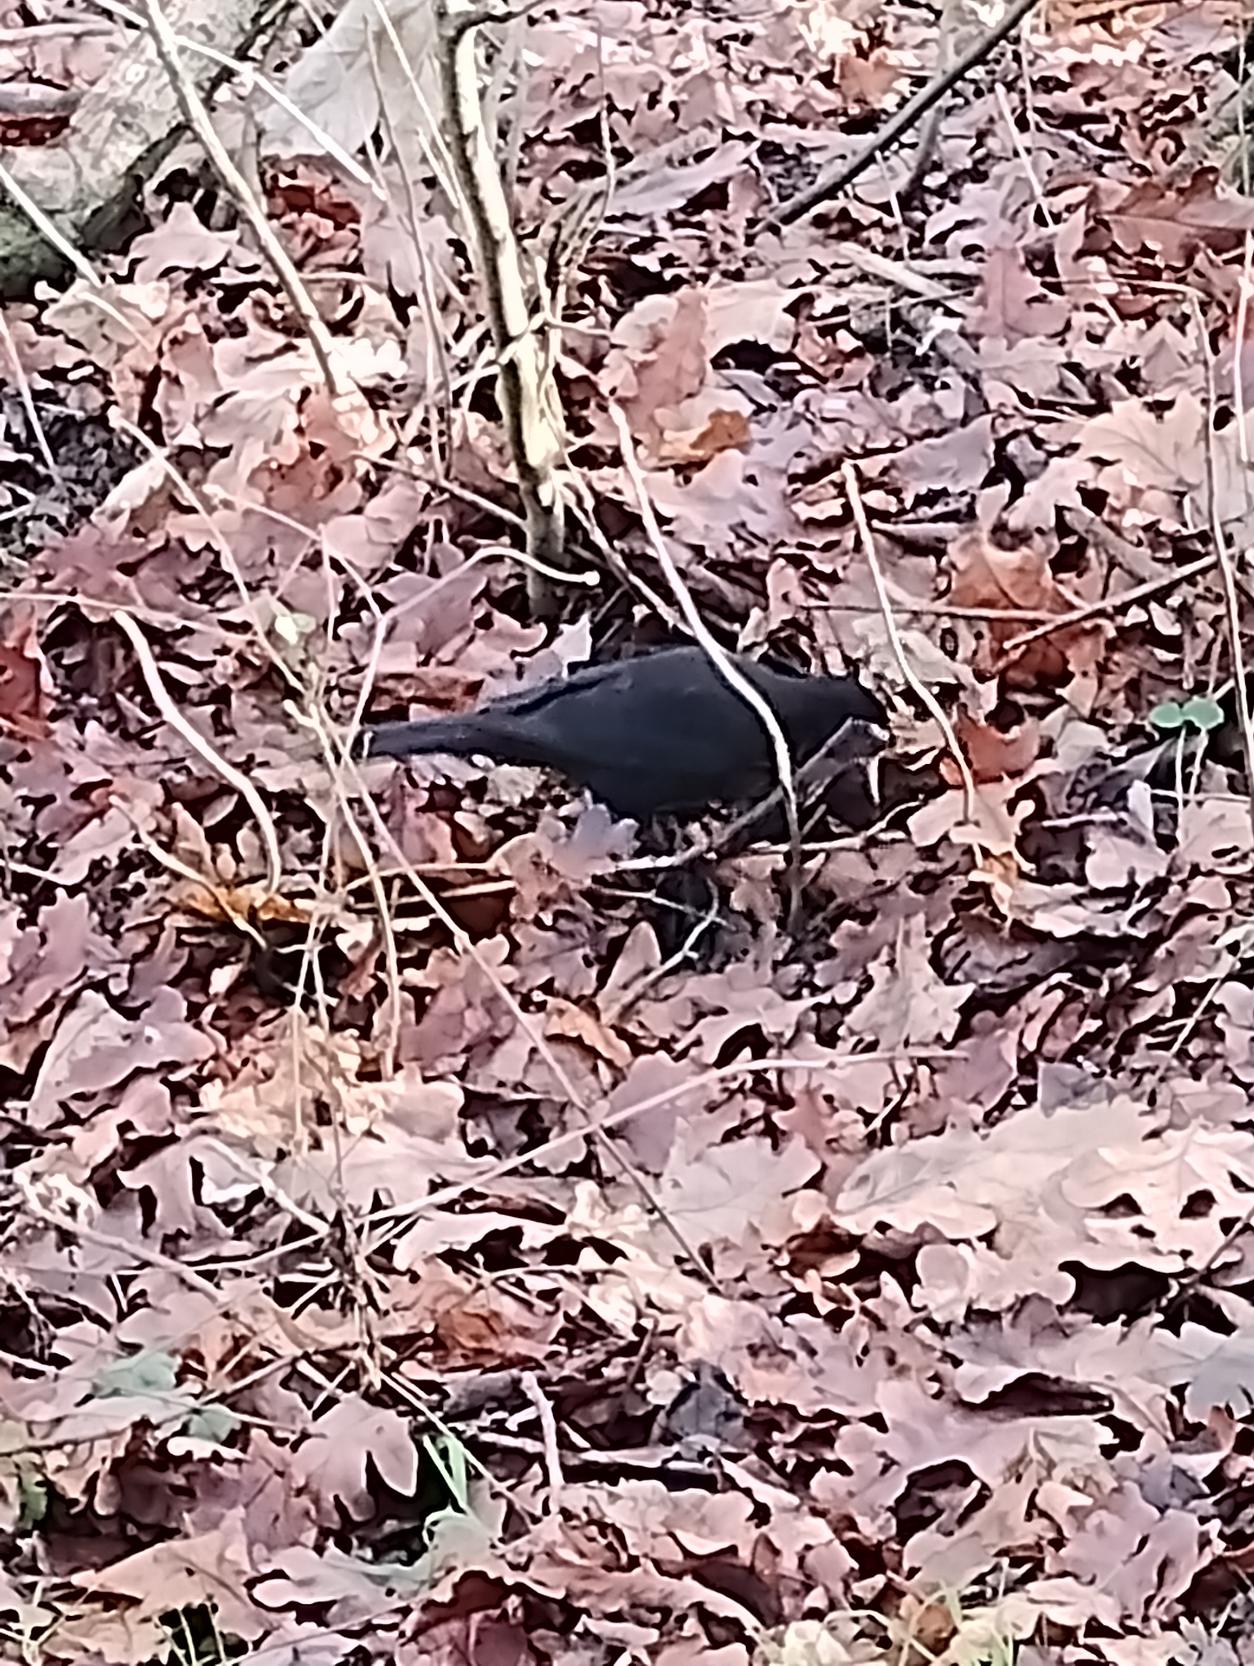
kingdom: Animalia
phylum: Chordata
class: Aves
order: Passeriformes
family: Turdidae
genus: Turdus
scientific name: Turdus merula
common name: Solsort
